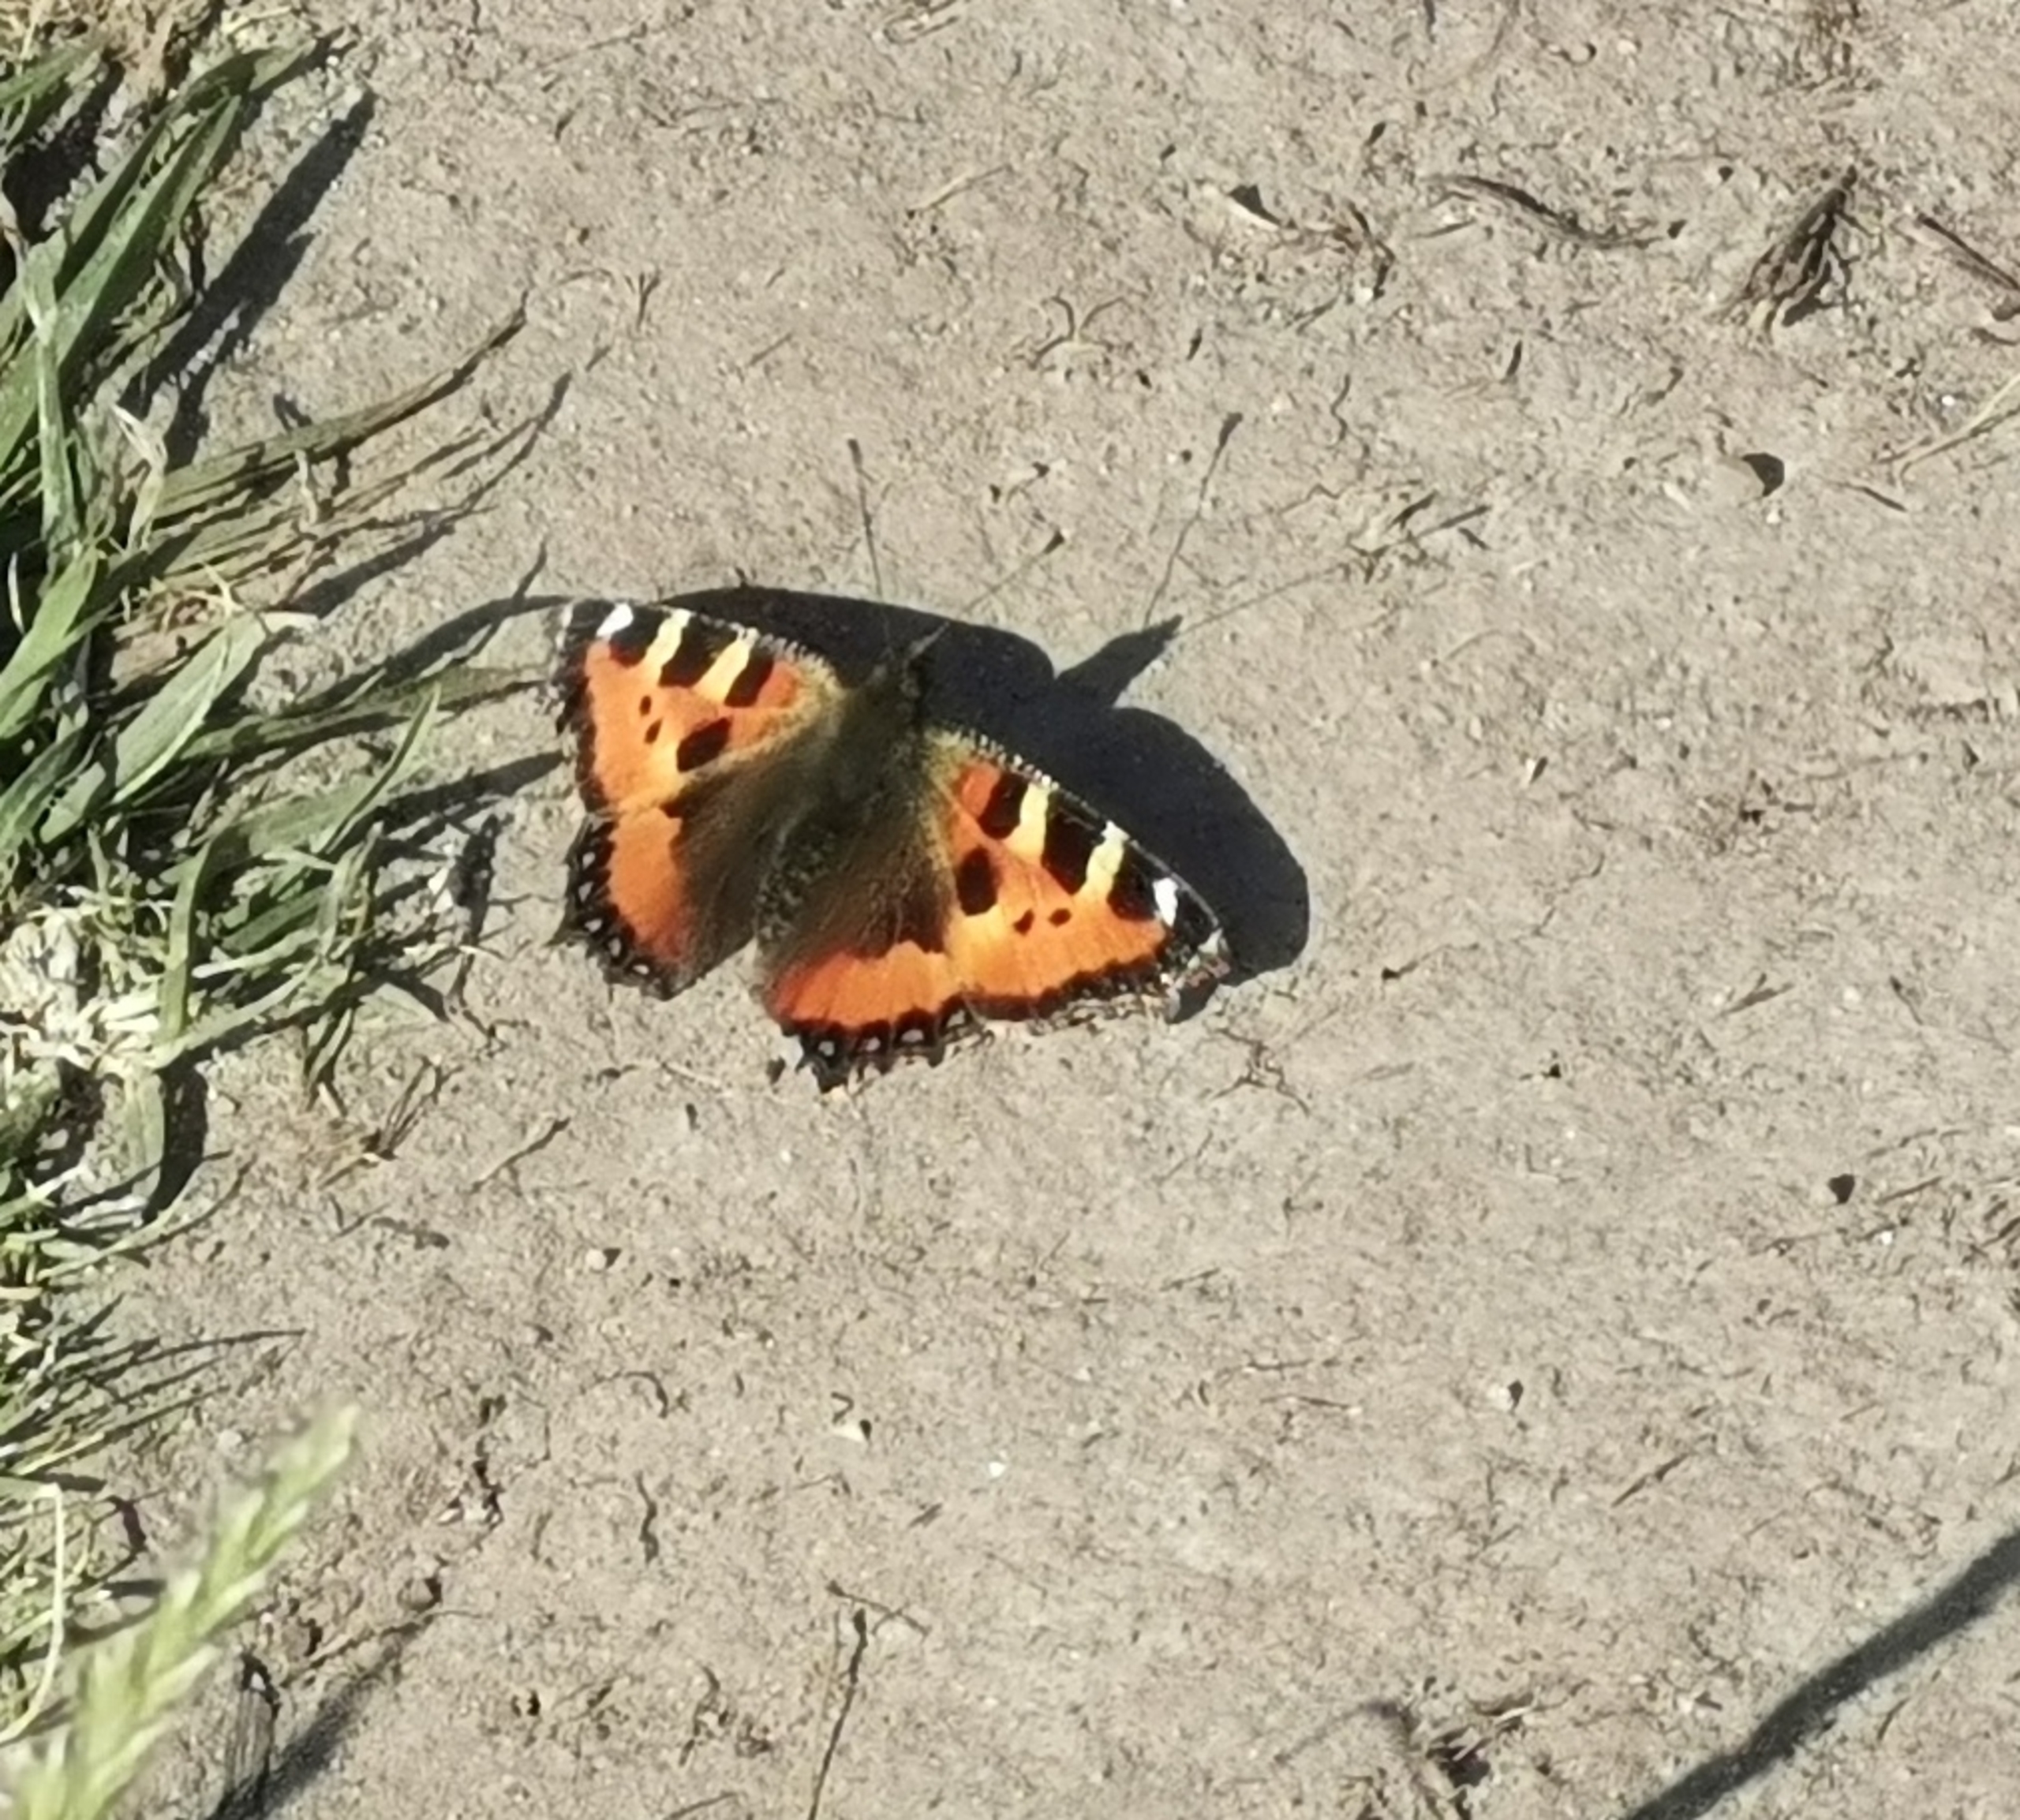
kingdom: Animalia
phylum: Arthropoda
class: Insecta
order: Lepidoptera
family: Nymphalidae
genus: Aglais
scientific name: Aglais urticae
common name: Nældens takvinge
